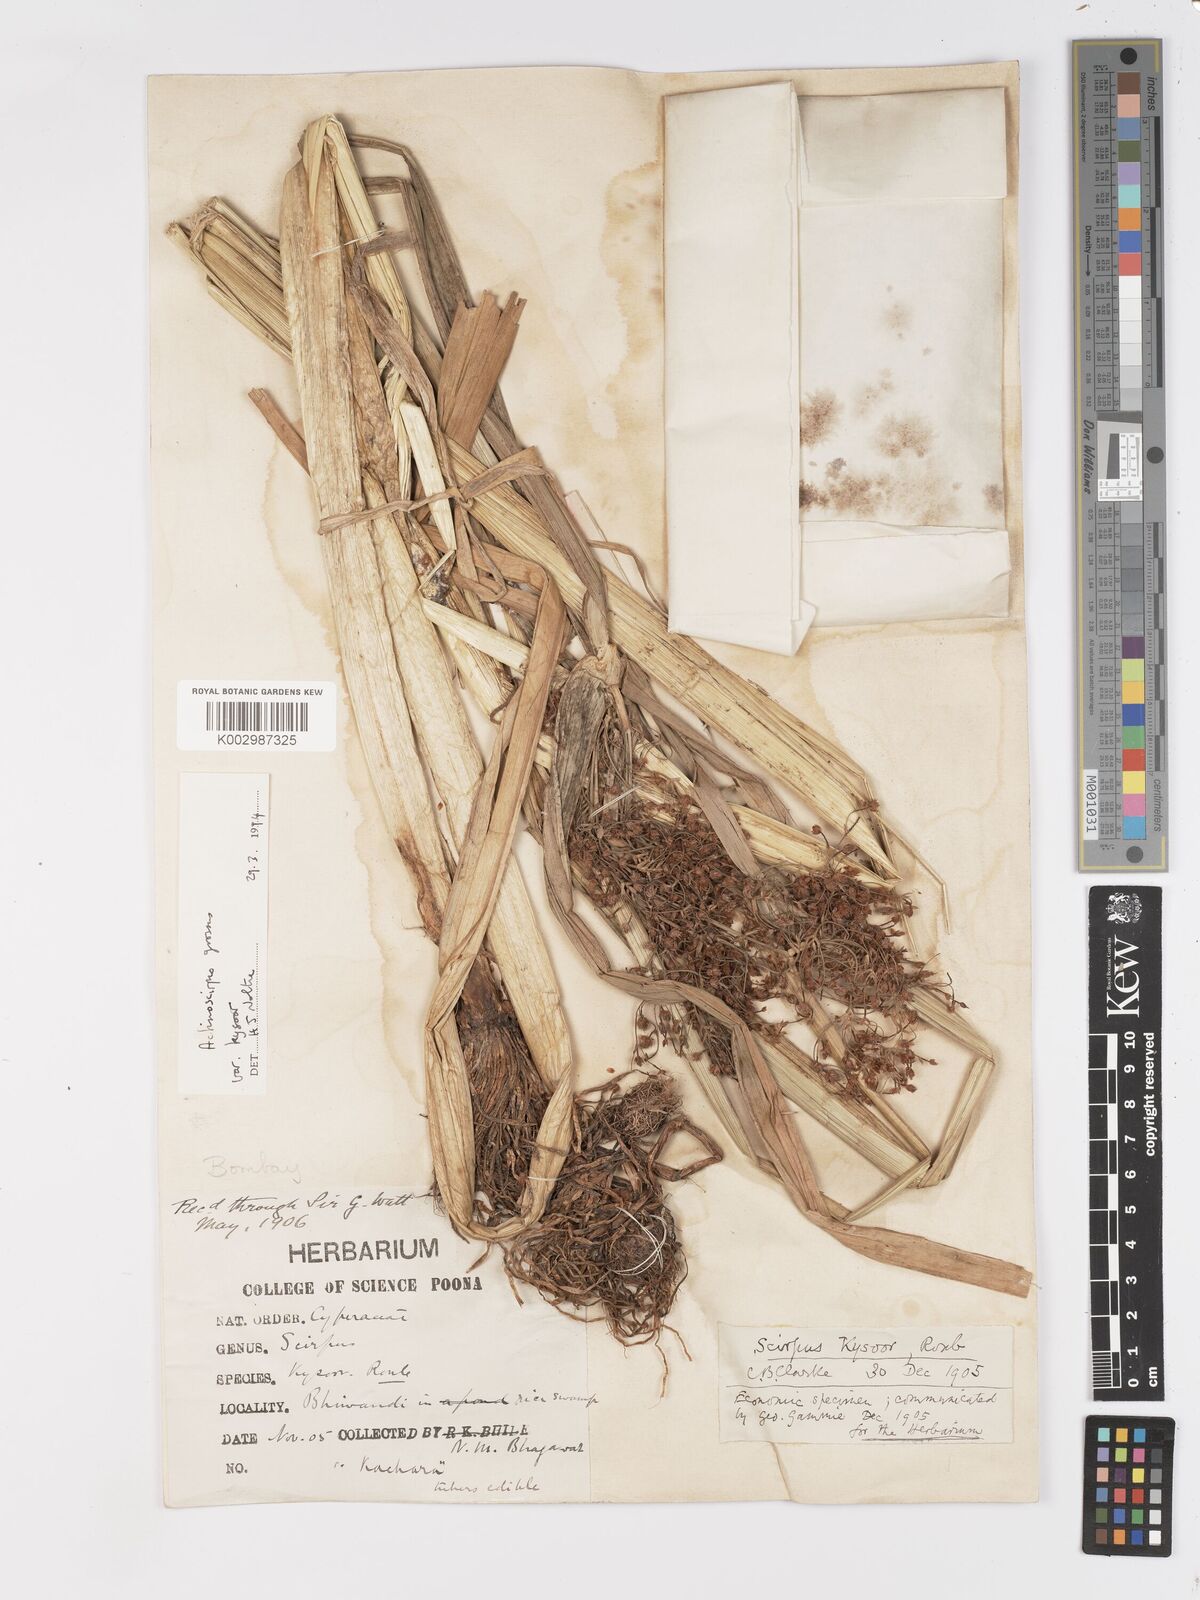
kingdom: Plantae
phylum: Tracheophyta
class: Liliopsida
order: Poales
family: Cyperaceae
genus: Actinoscirpus
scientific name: Actinoscirpus grossus
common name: Giant bur rush
